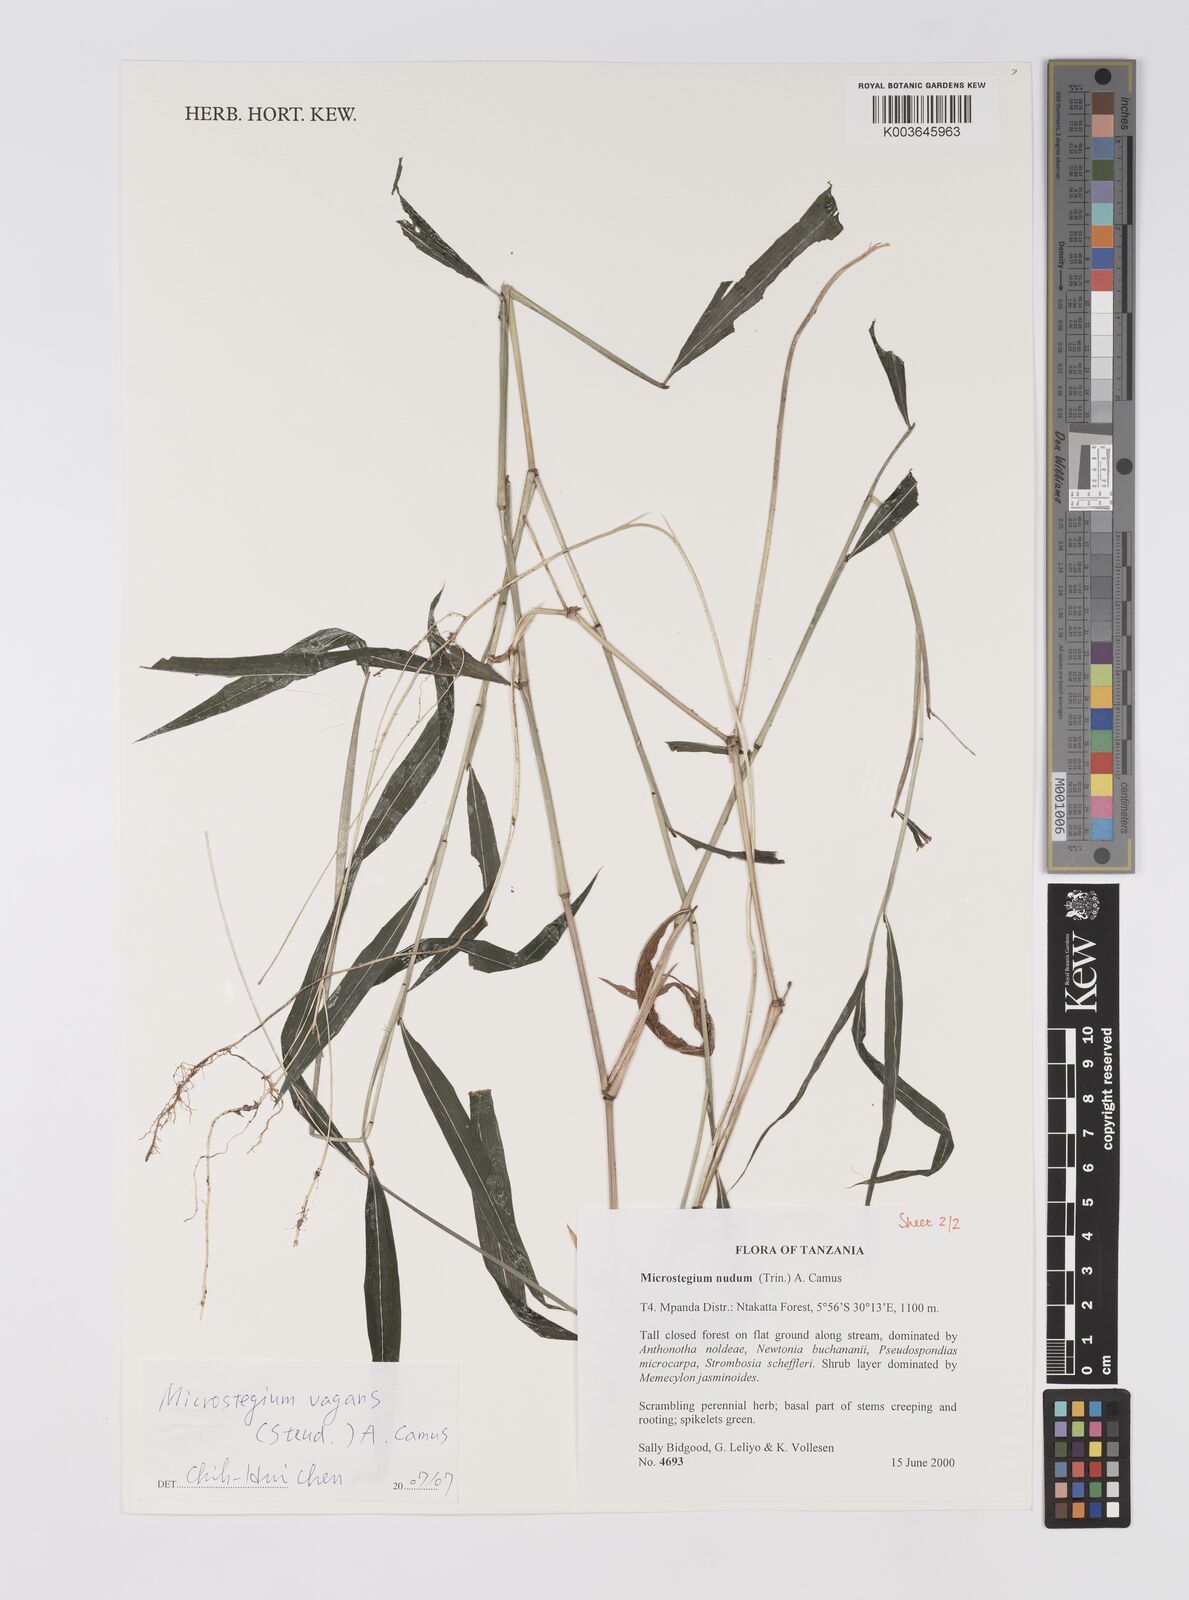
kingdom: Plantae
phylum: Tracheophyta
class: Liliopsida
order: Poales
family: Poaceae
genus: Microstegium
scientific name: Microstegium fasciculatum
